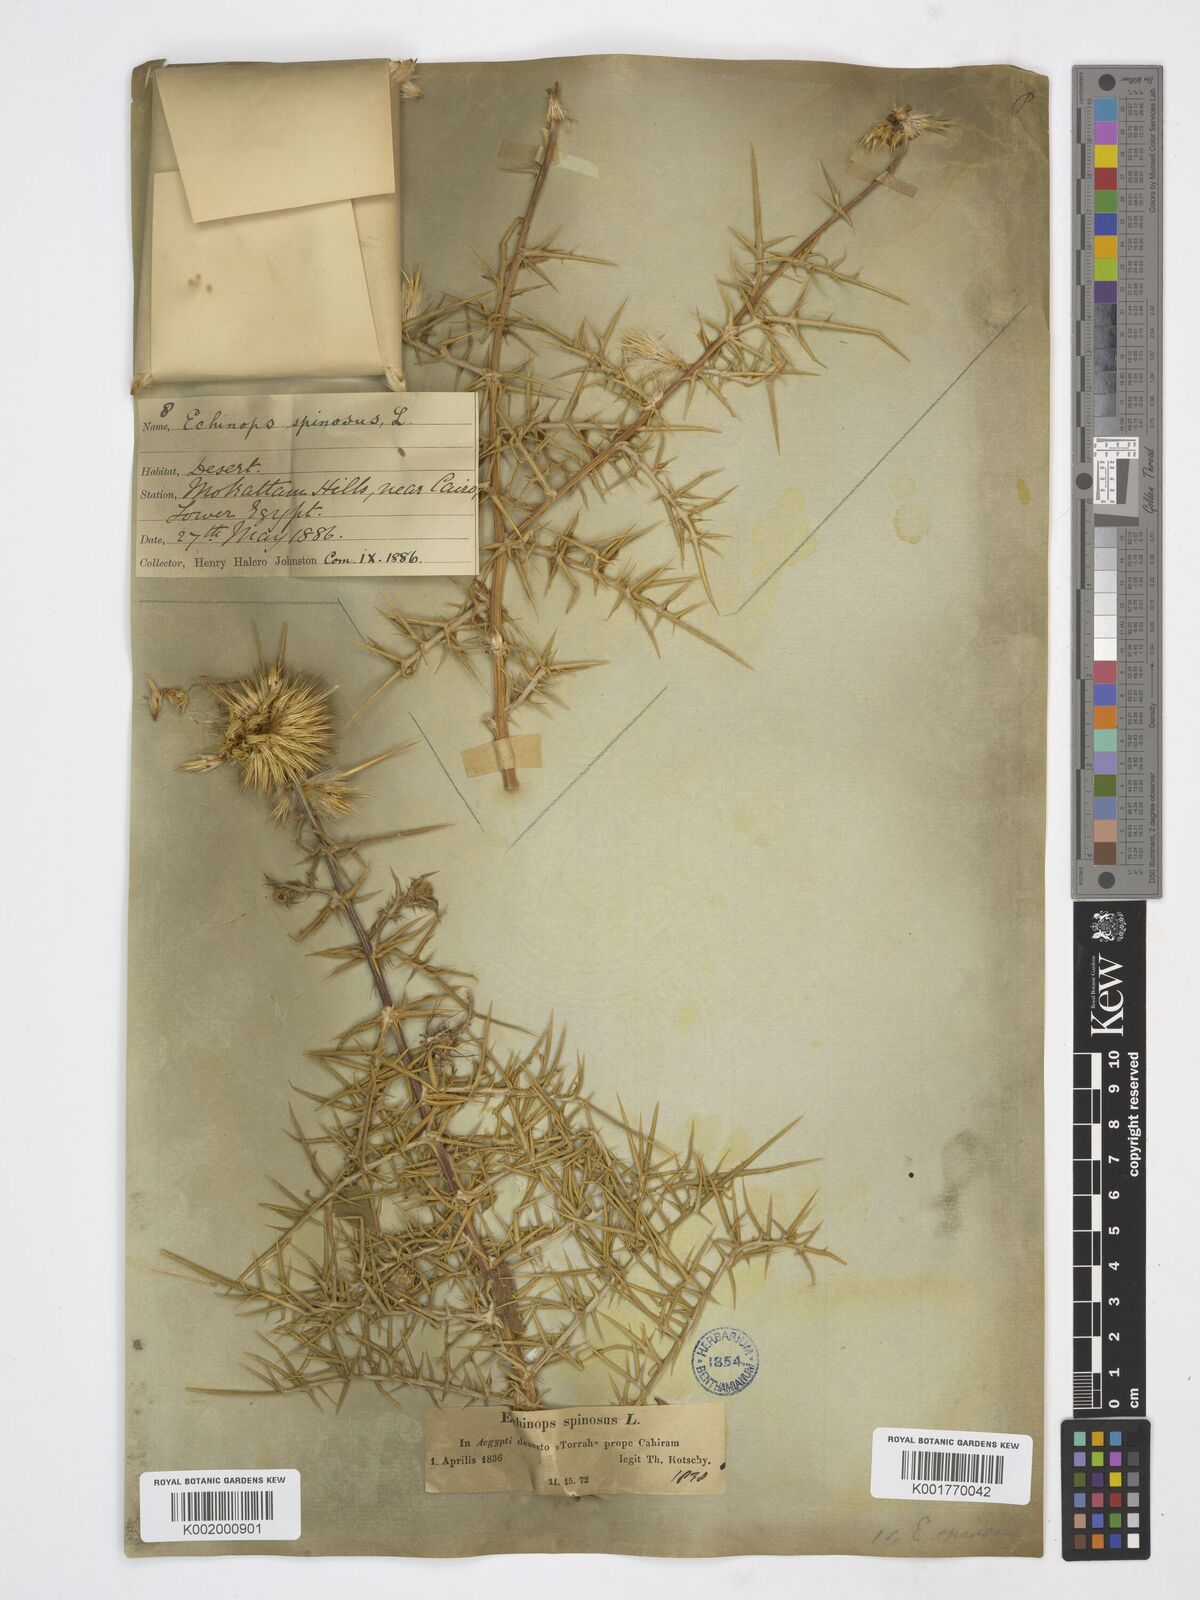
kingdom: Plantae
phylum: Tracheophyta
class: Magnoliopsida
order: Asterales
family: Asteraceae
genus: Echinops
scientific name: Echinops spinosissimus
